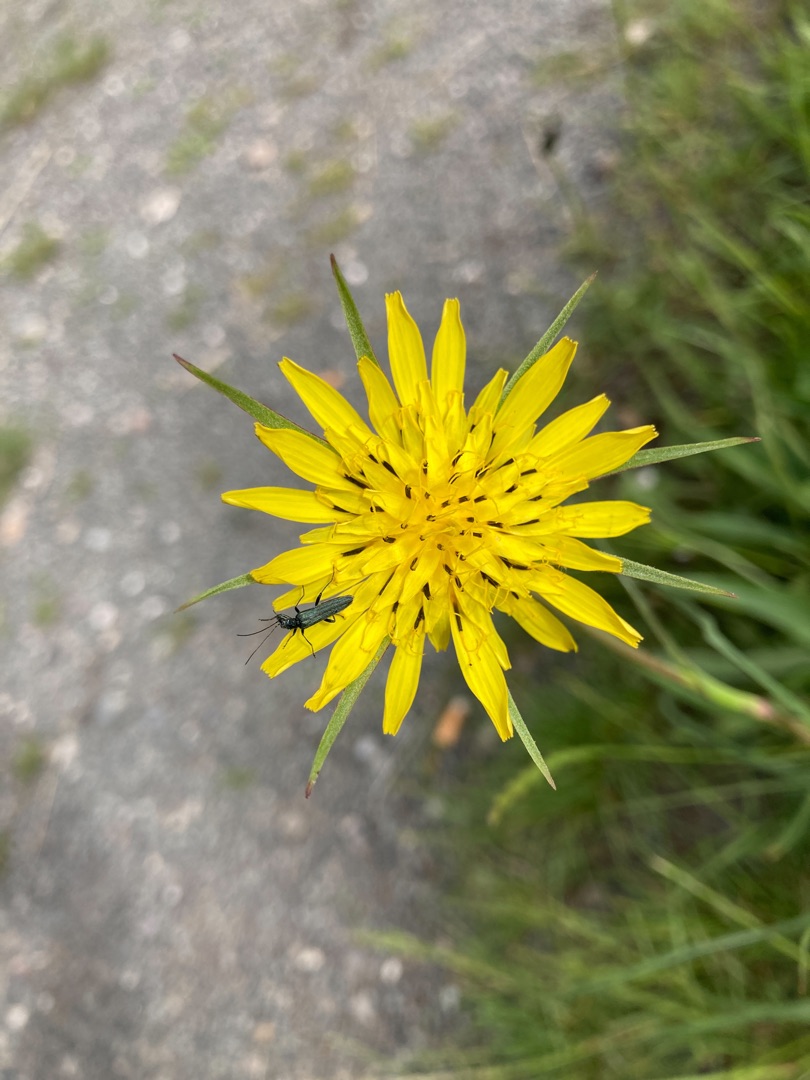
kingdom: Plantae
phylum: Tracheophyta
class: Magnoliopsida
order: Asterales
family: Asteraceae
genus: Tragopogon
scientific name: Tragopogon minor
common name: Småkronet gedeskæg
